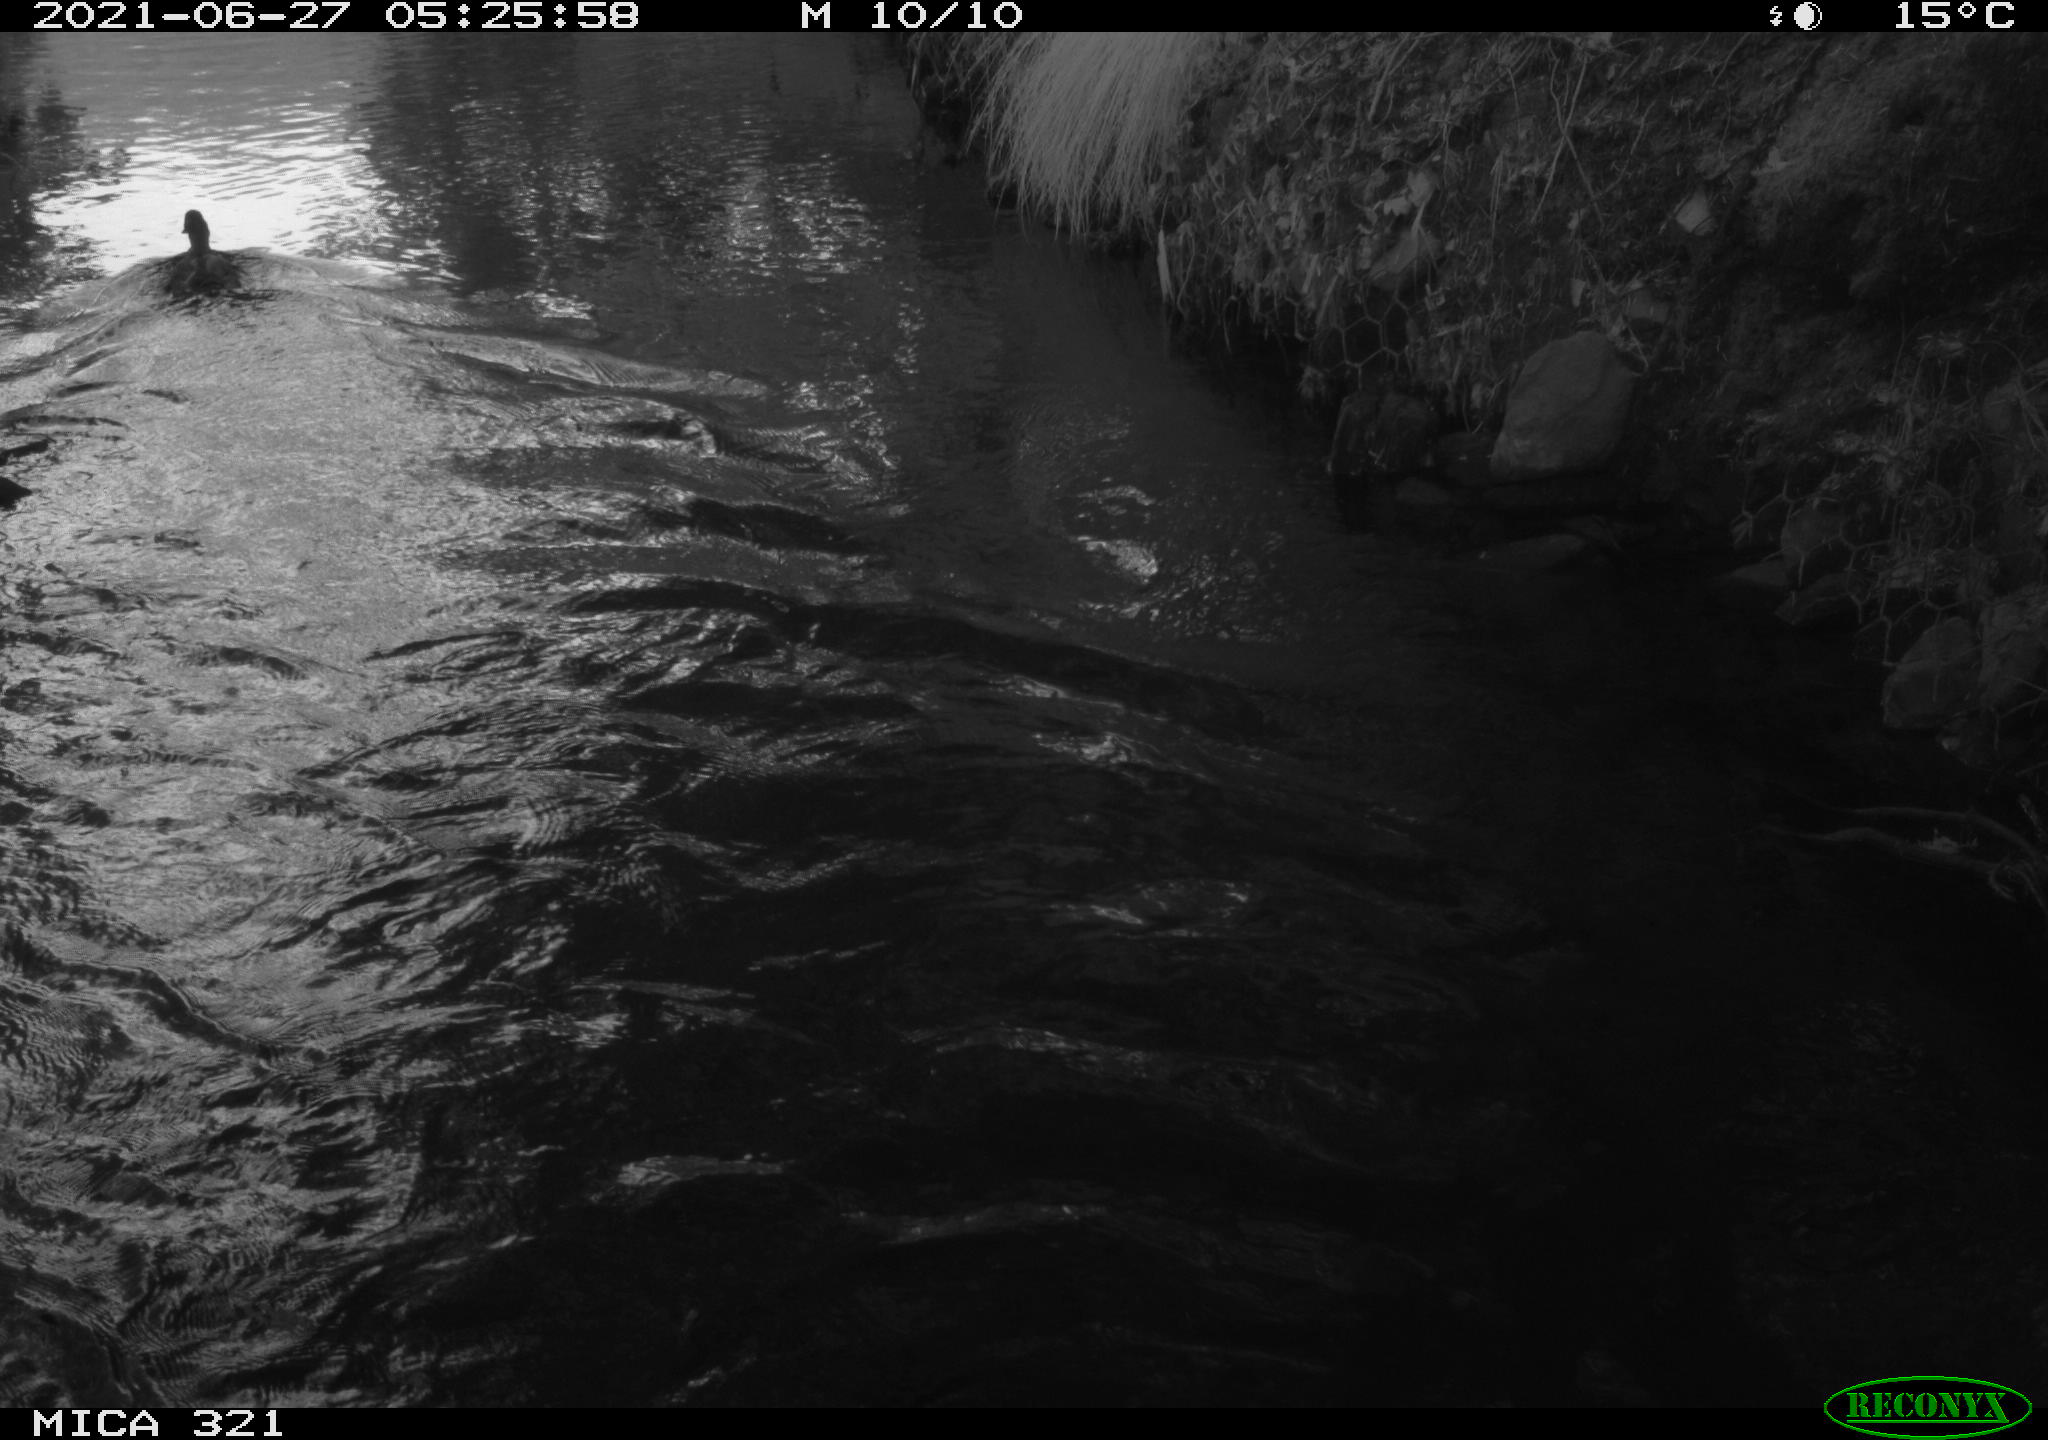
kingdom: Animalia
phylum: Chordata
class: Aves
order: Anseriformes
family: Anatidae
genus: Anas
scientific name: Anas platyrhynchos
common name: Mallard
